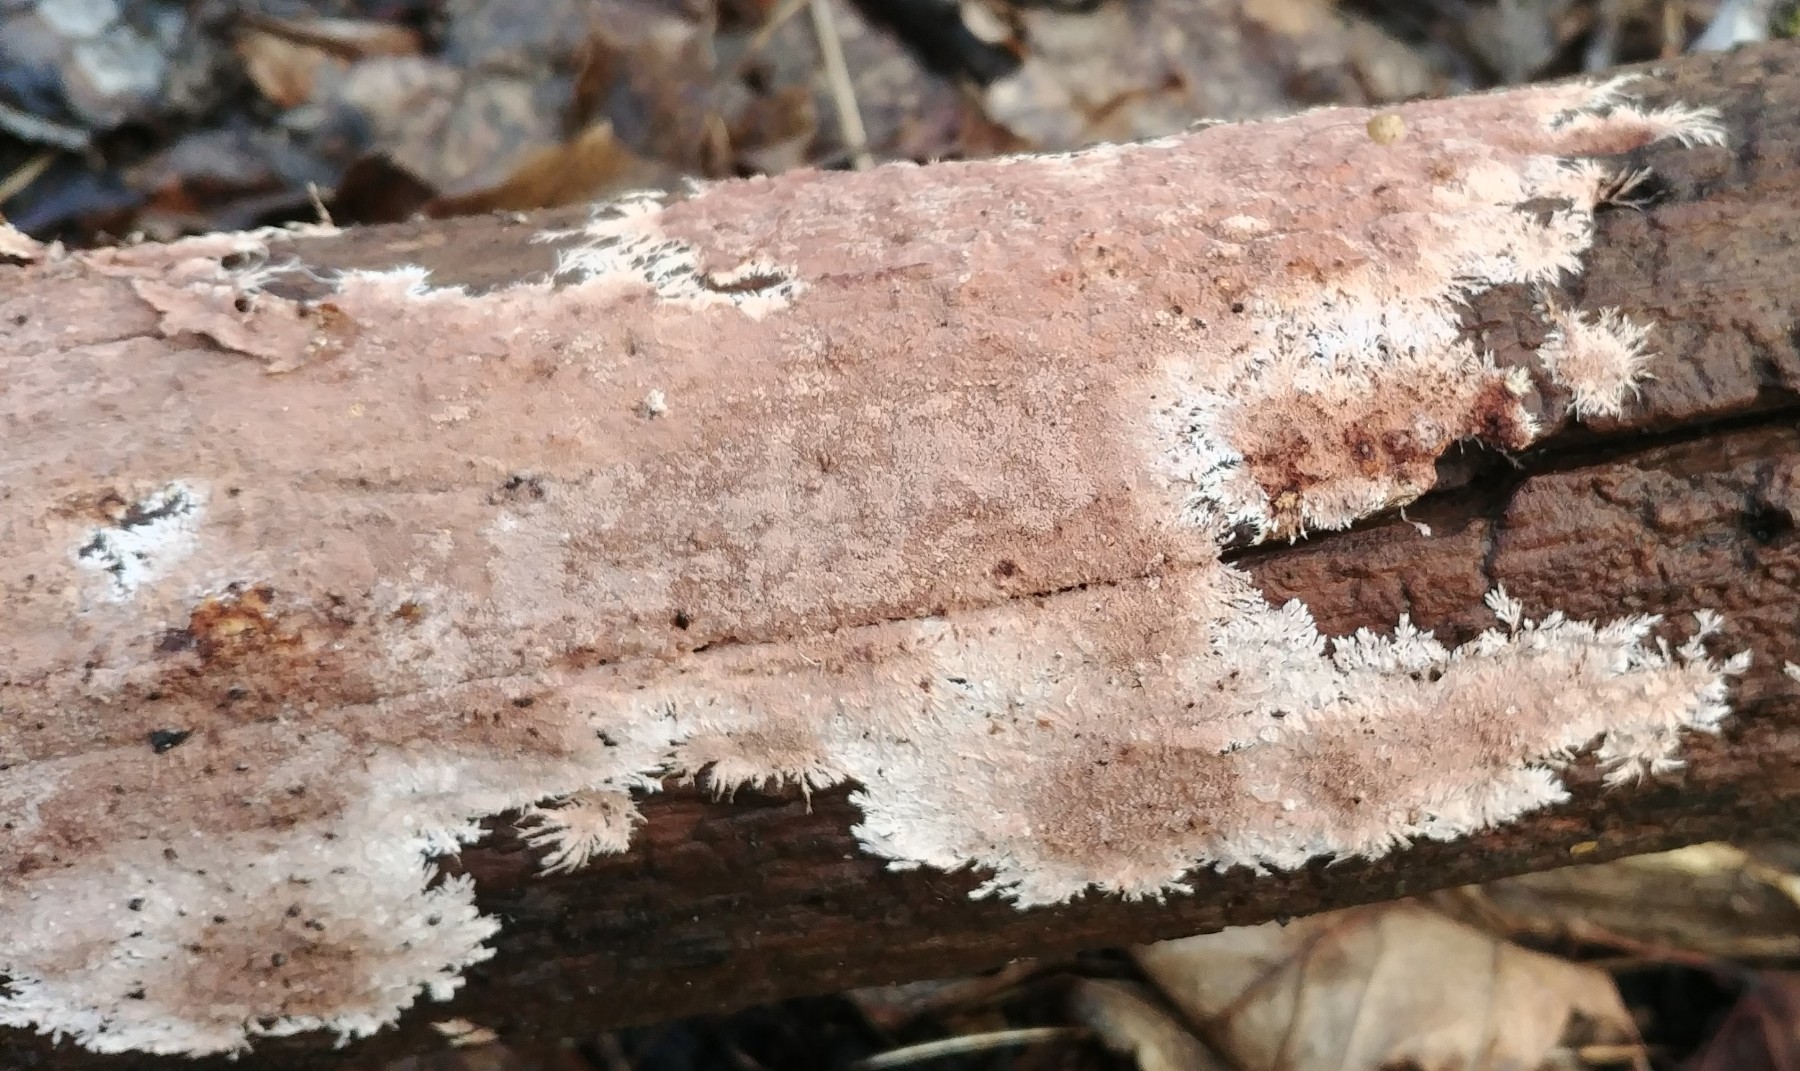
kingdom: Fungi
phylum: Basidiomycota
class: Agaricomycetes
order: Polyporales
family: Steccherinaceae
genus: Steccherinum
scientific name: Steccherinum fimbriatum
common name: trådet skønpig
